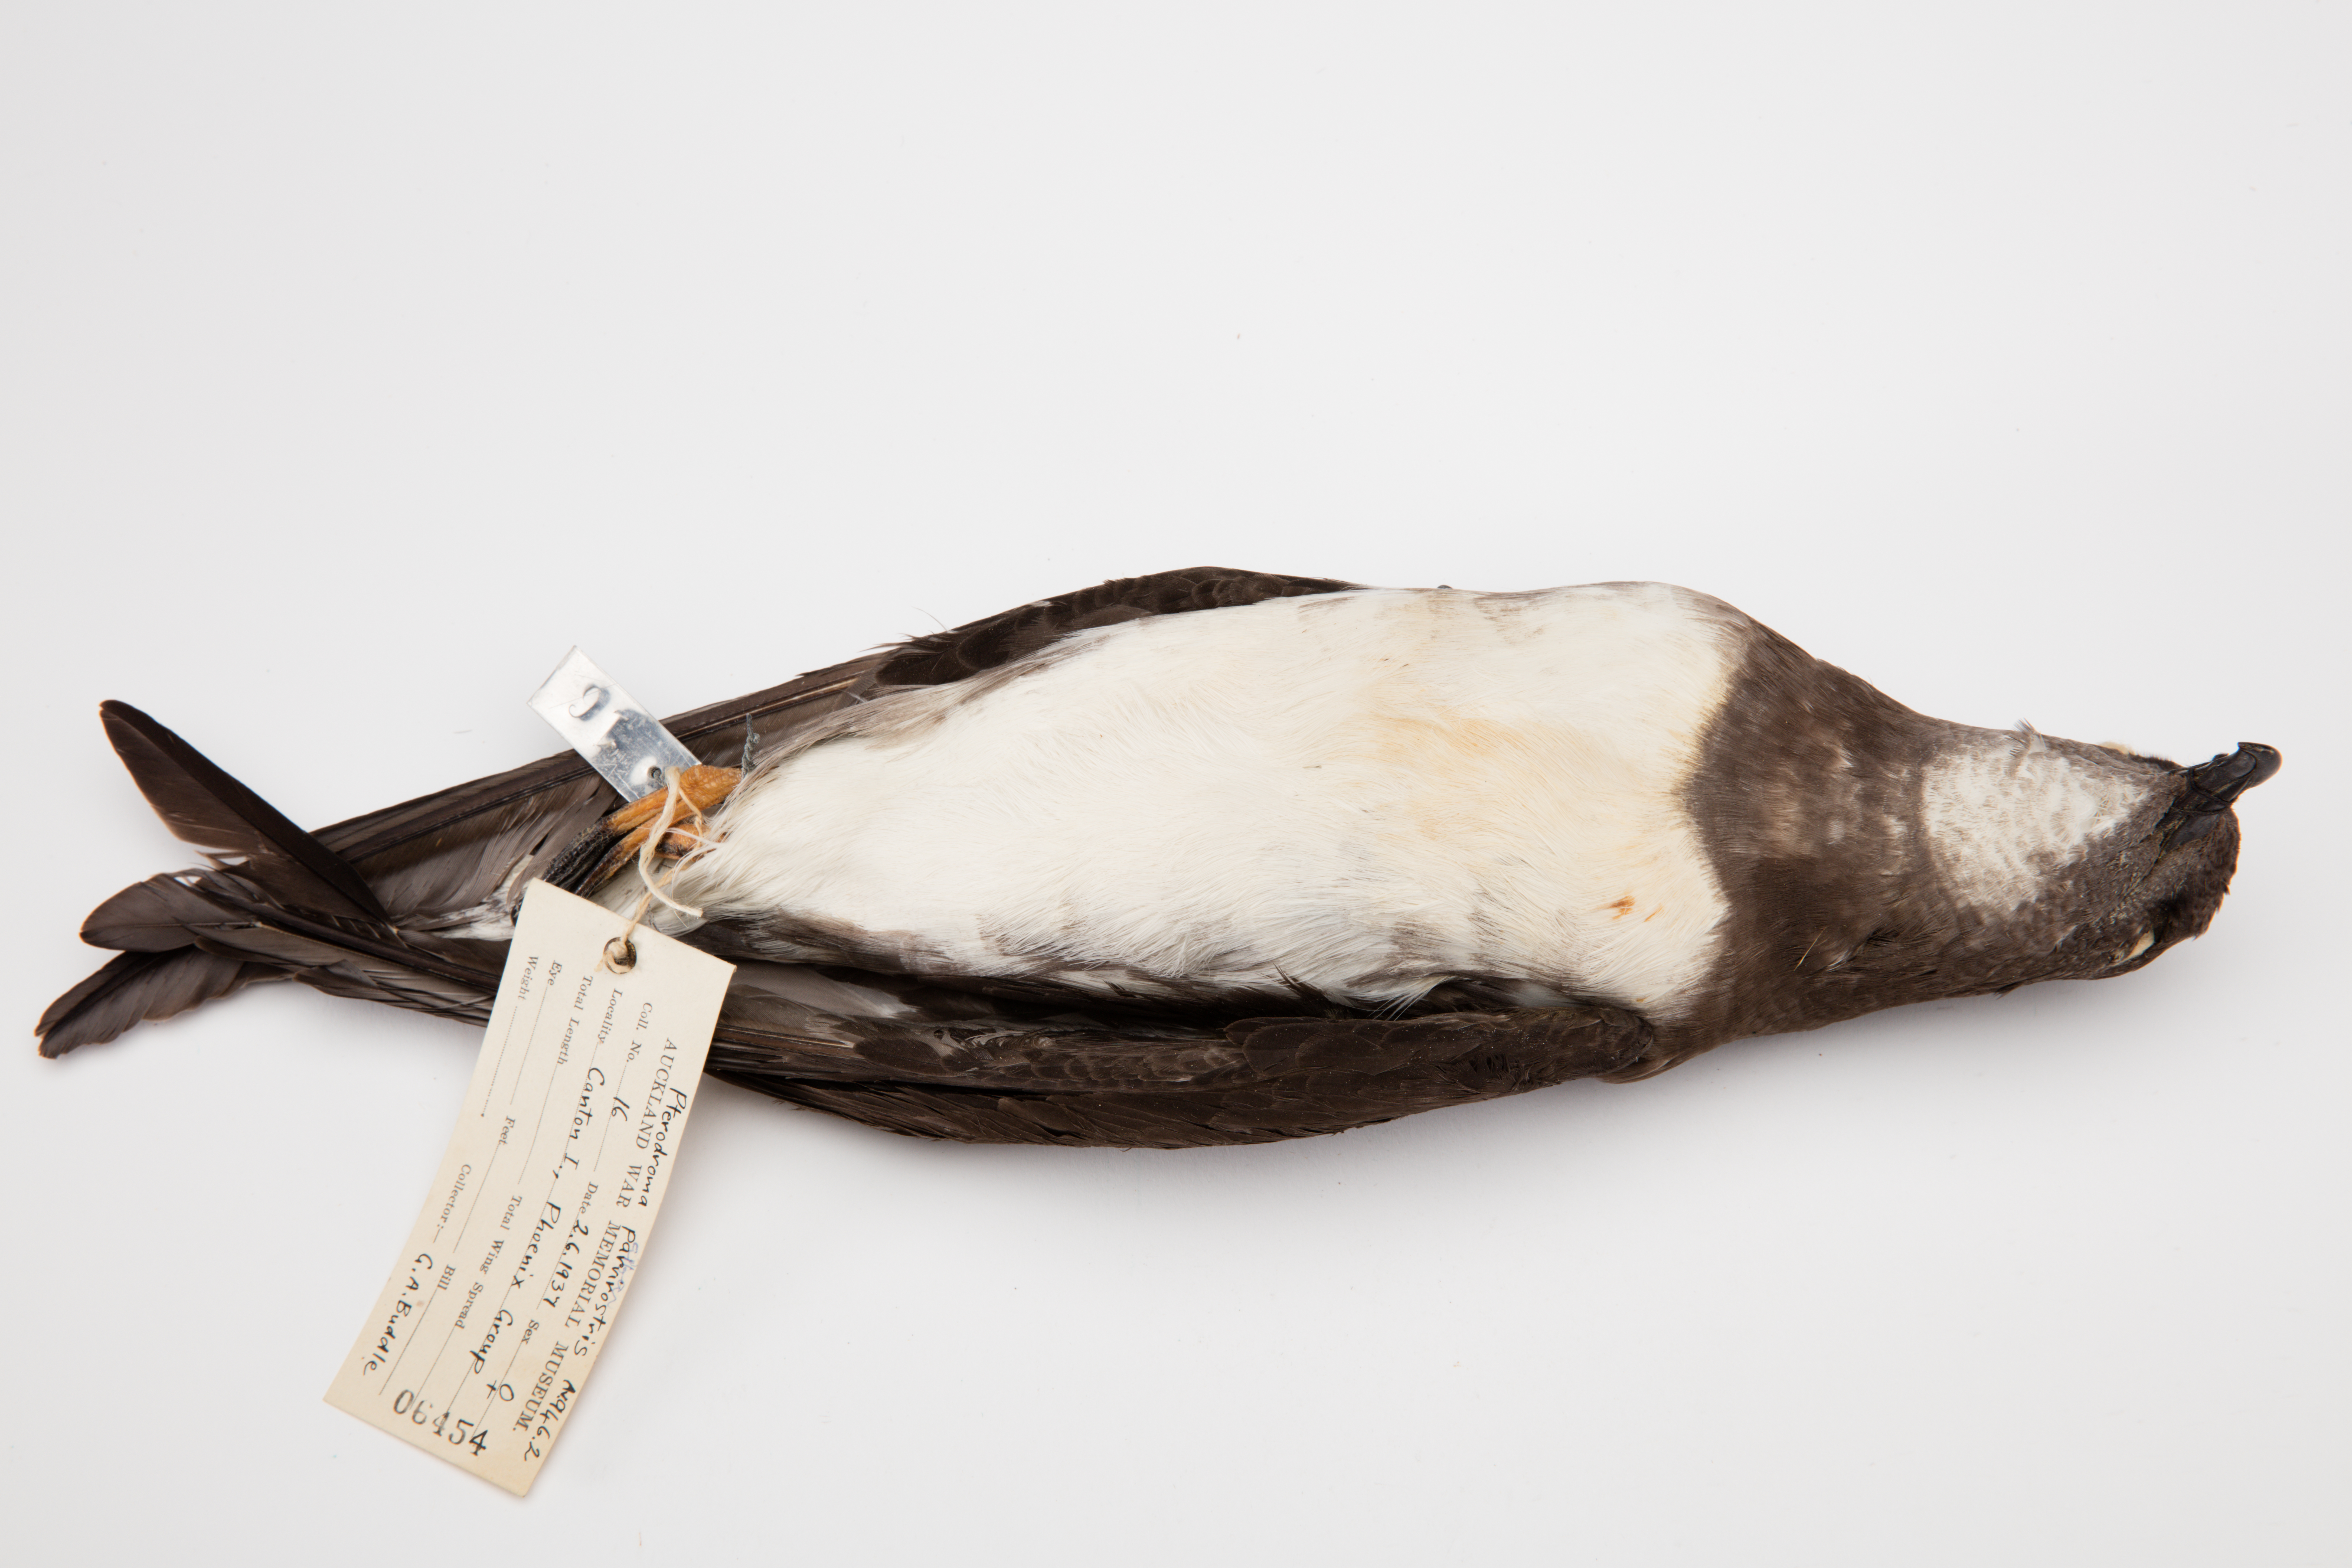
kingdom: Animalia
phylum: Chordata
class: Aves
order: Procellariiformes
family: Procellariidae
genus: Pterodroma
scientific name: Pterodroma alba
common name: Phoenix petrel
